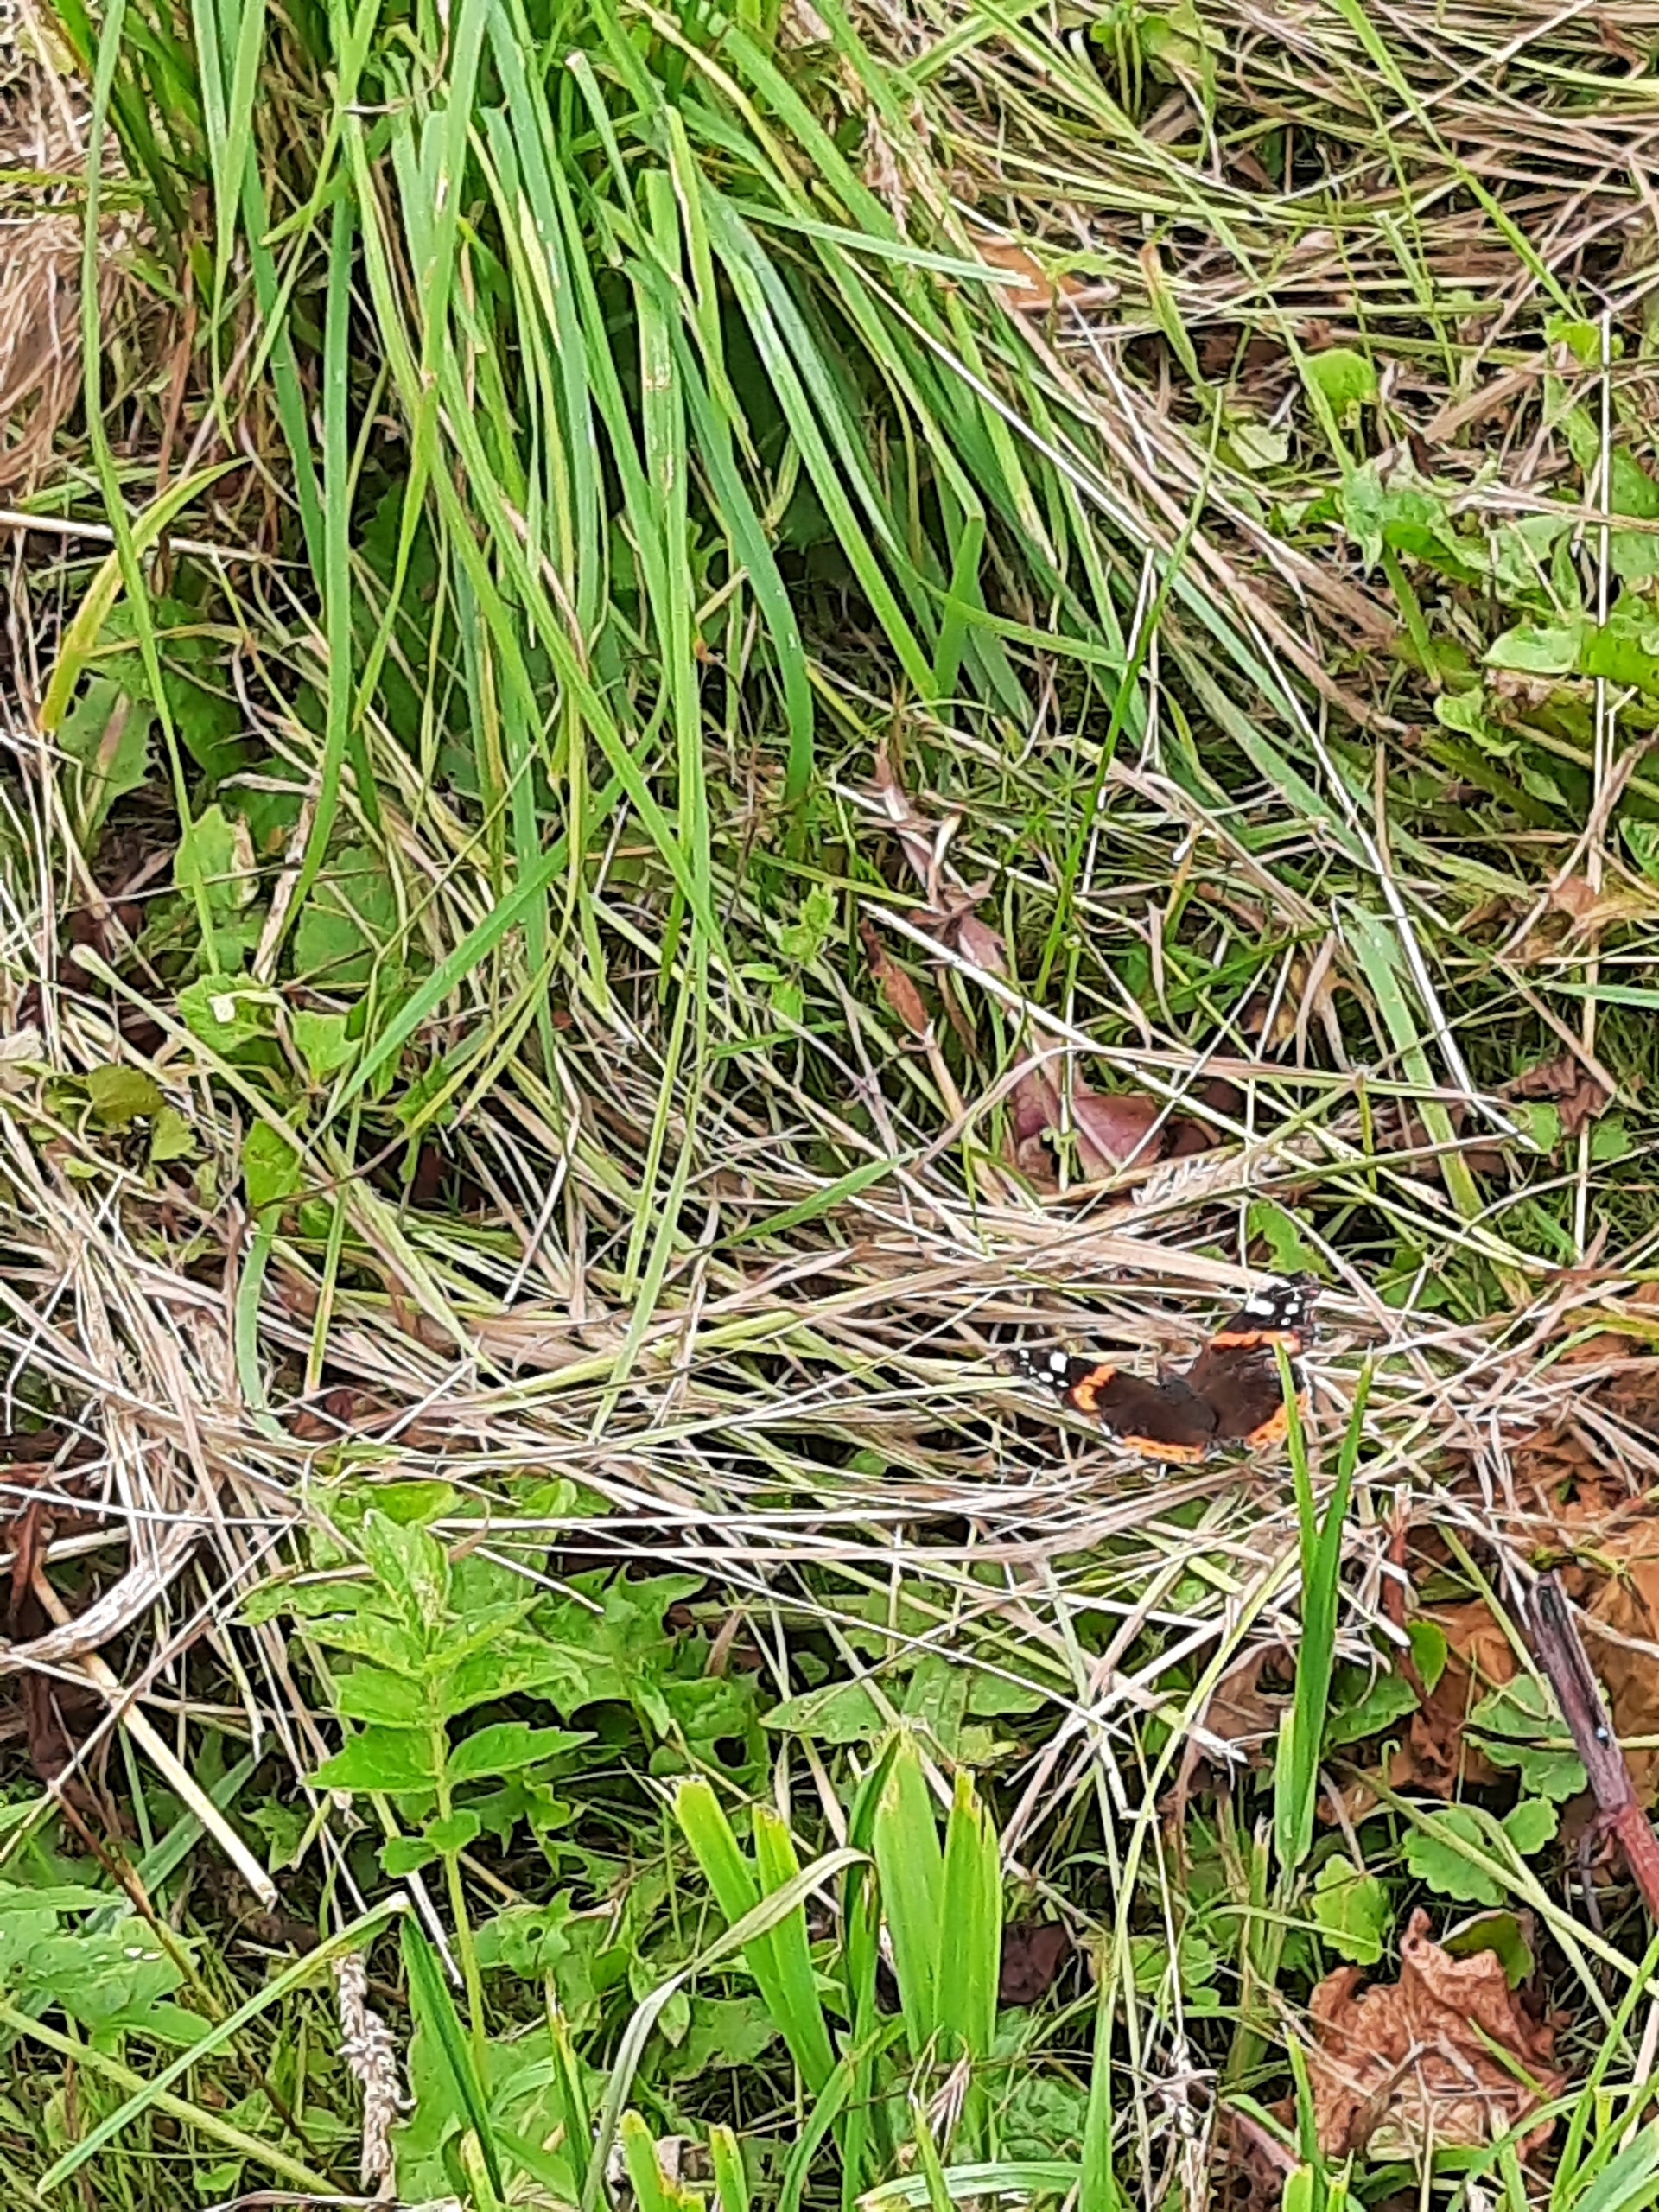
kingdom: Animalia
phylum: Arthropoda
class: Insecta
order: Lepidoptera
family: Nymphalidae
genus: Vanessa
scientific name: Vanessa atalanta
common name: Admiral
